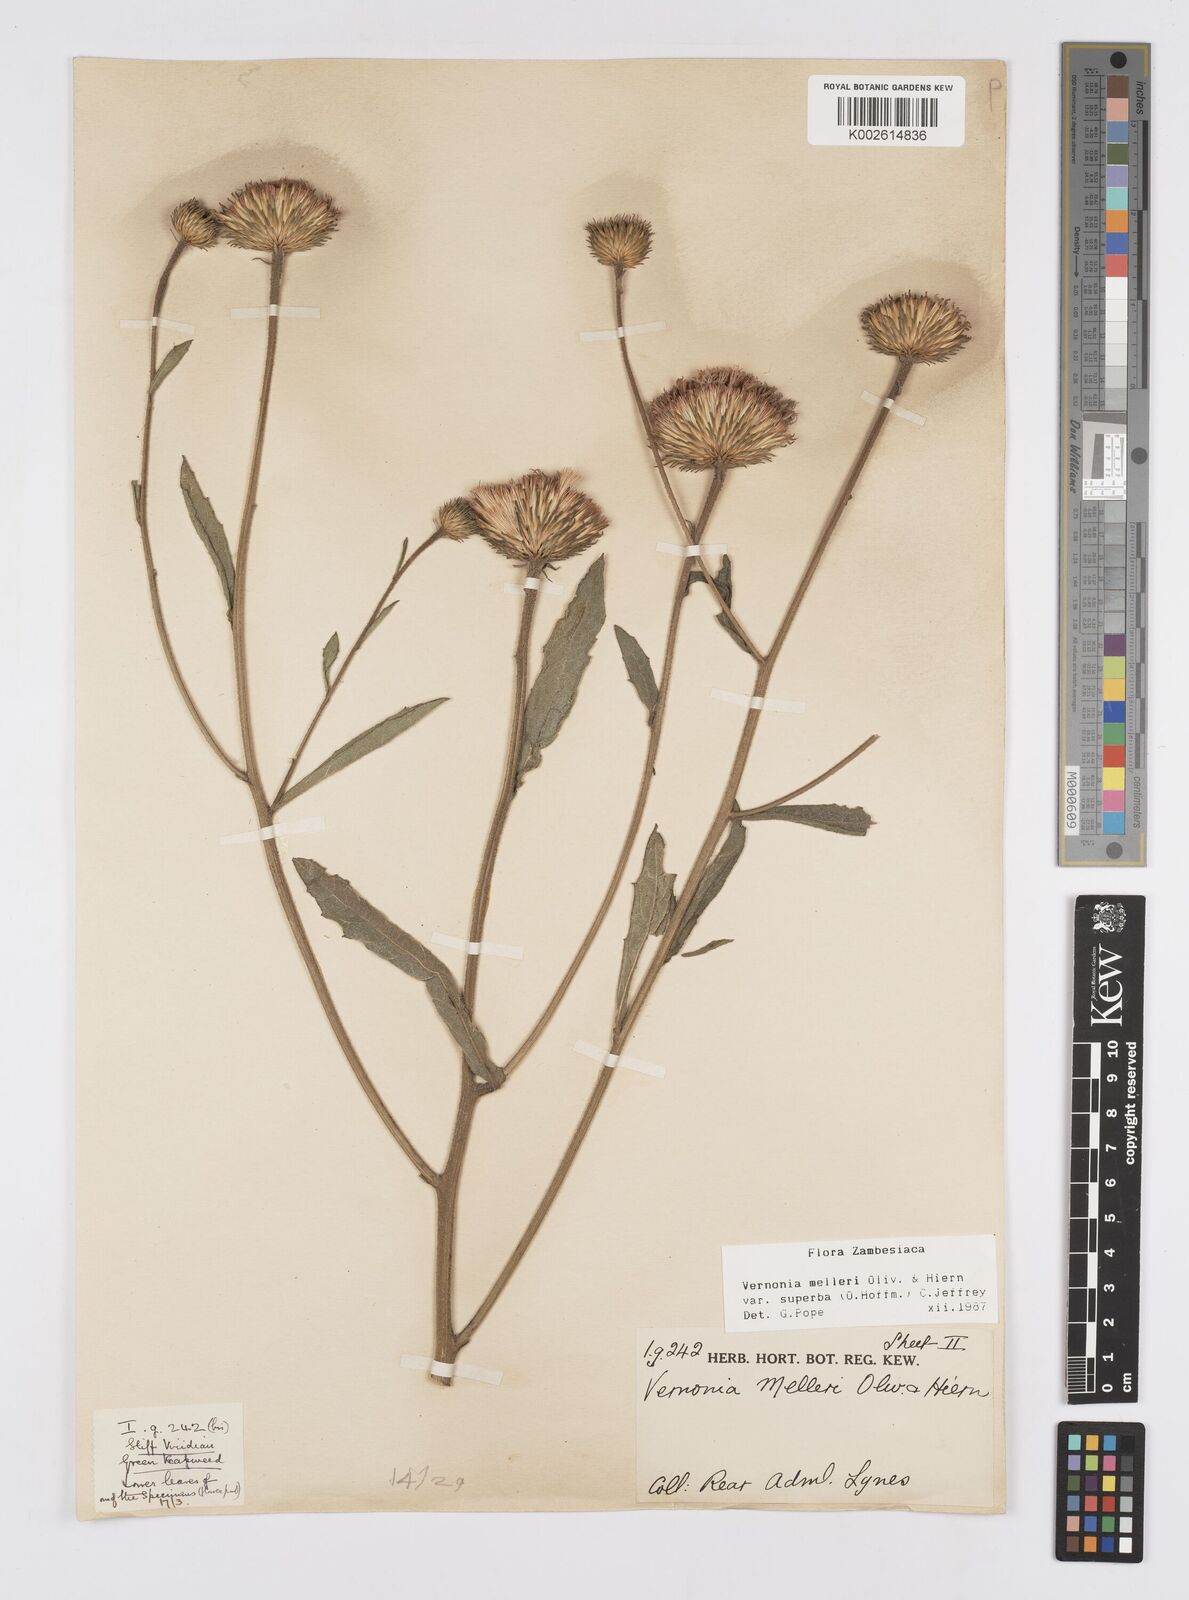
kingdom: Plantae
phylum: Tracheophyta
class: Magnoliopsida
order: Asterales
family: Asteraceae
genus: Linzia
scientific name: Linzia melleri
